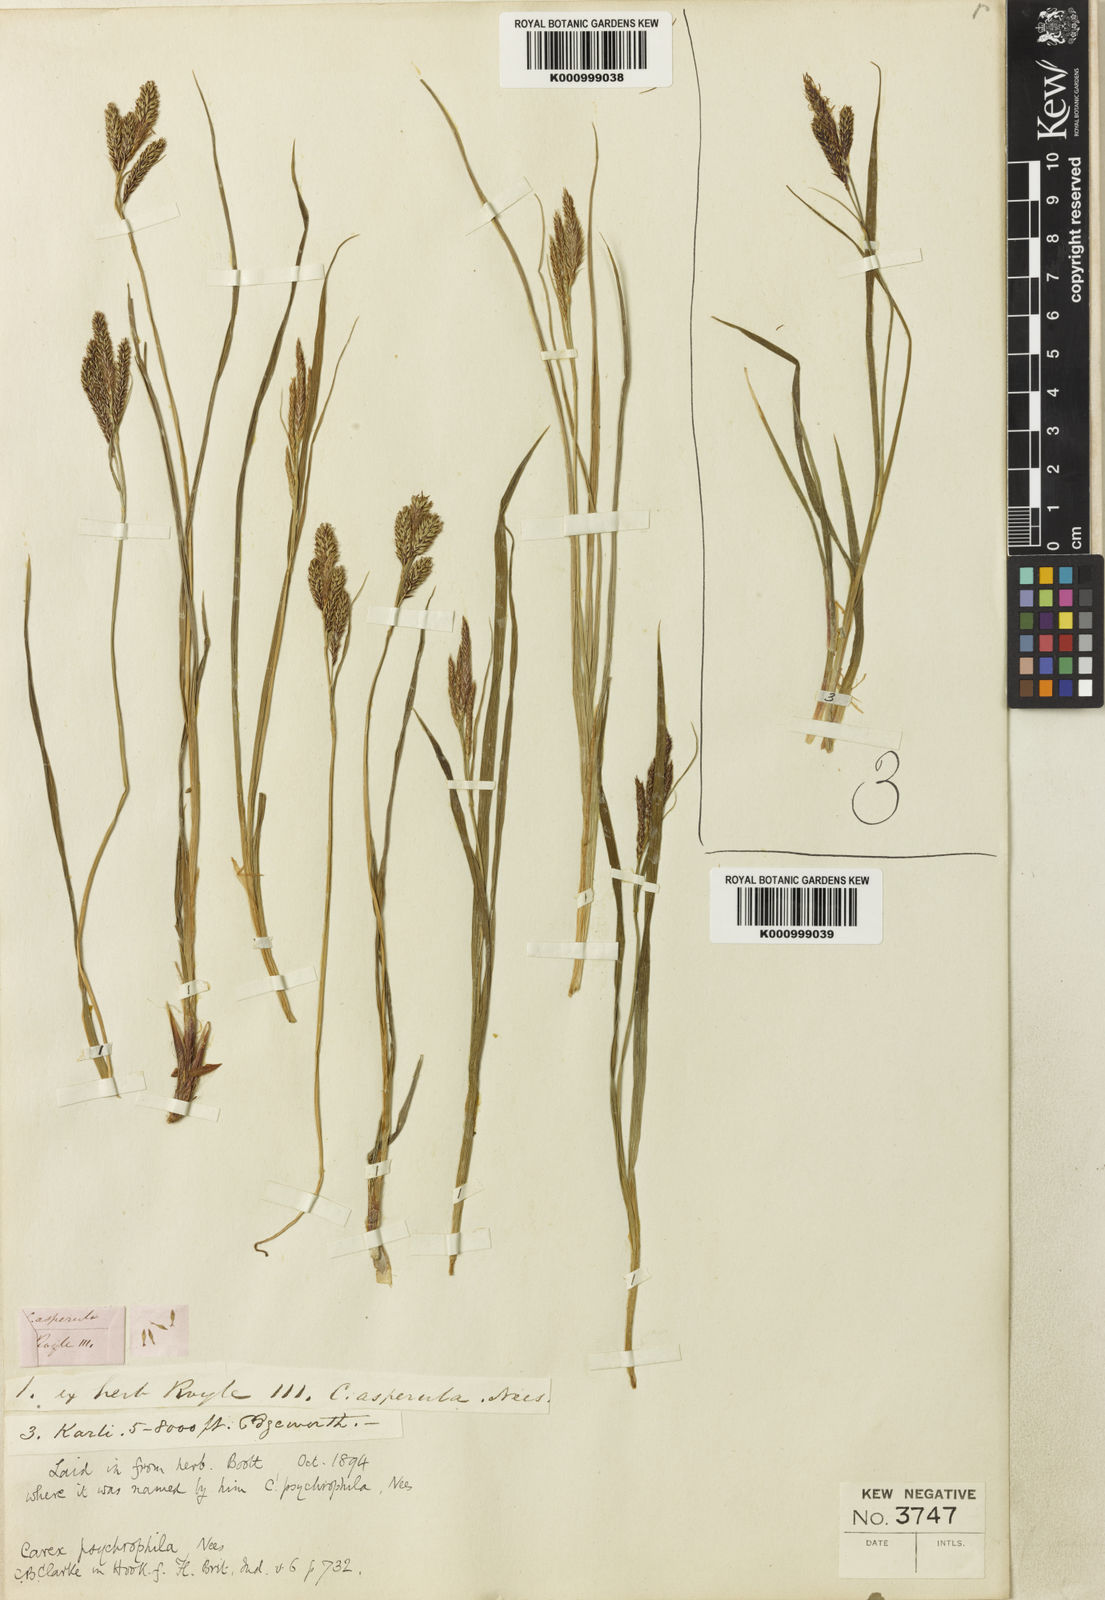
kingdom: Plantae
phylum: Tracheophyta
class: Liliopsida
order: Poales
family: Cyperaceae
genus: Carex
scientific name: Carex psychrophila
